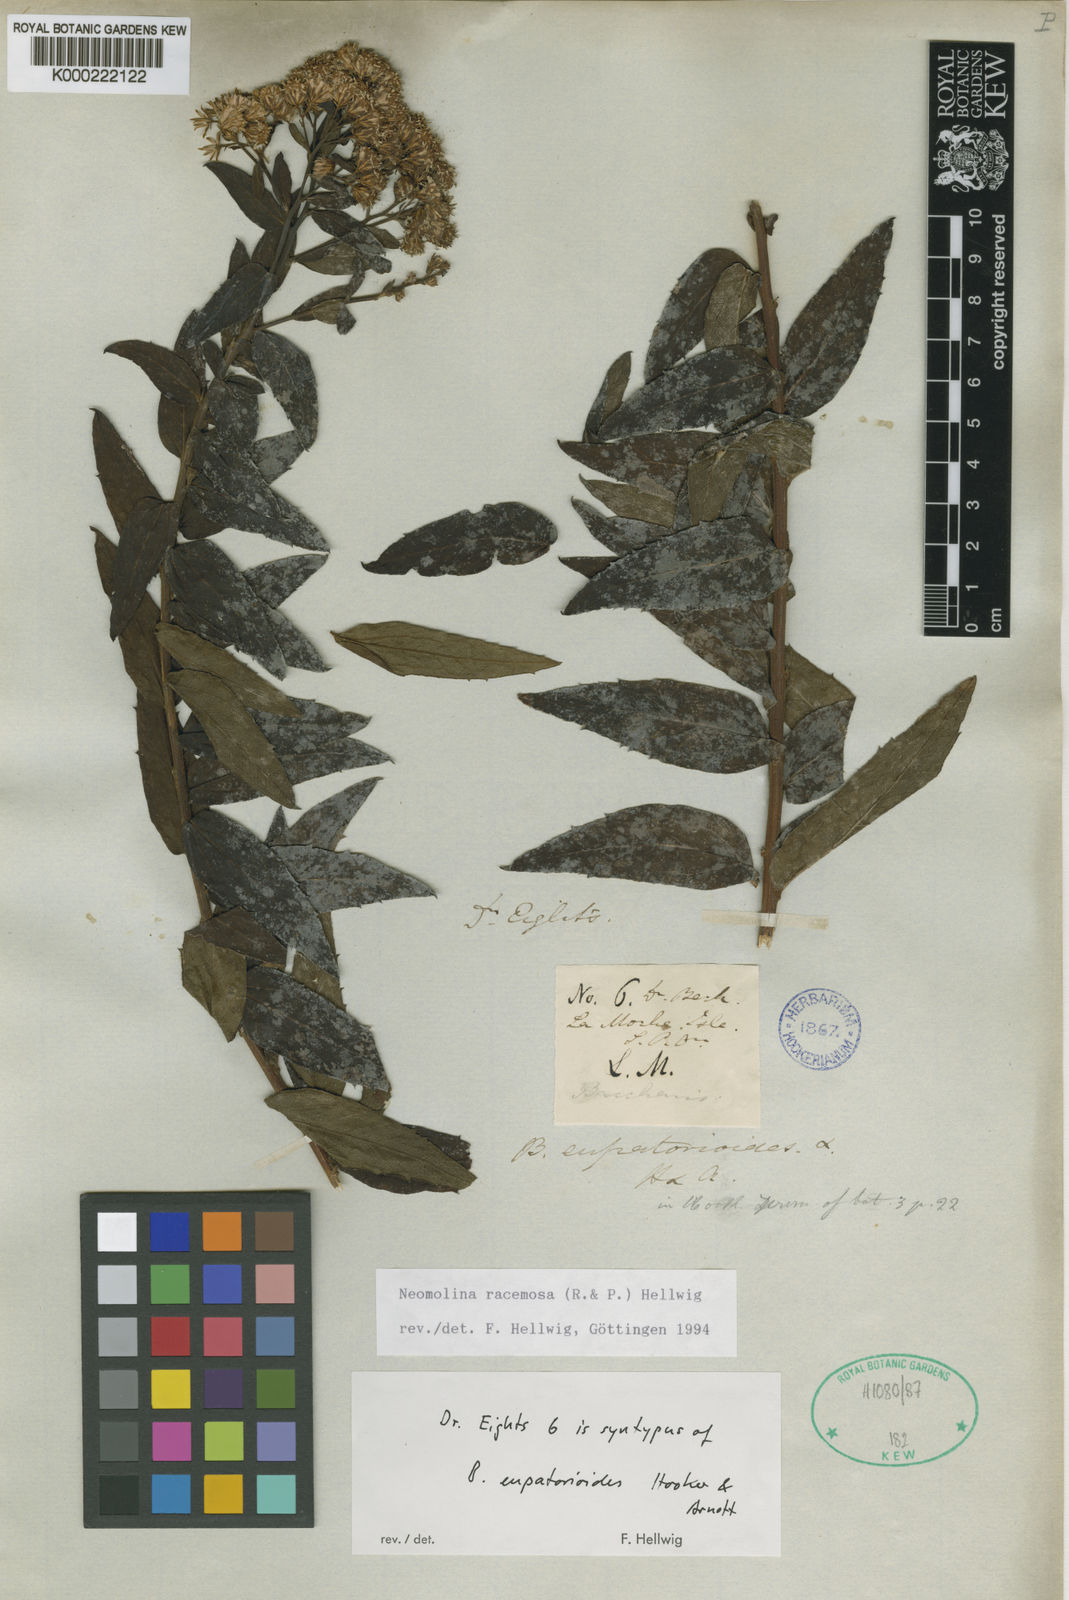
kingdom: Plantae
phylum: Tracheophyta
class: Magnoliopsida
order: Asterales
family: Asteraceae
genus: Baccharis
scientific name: Baccharis racemosa
